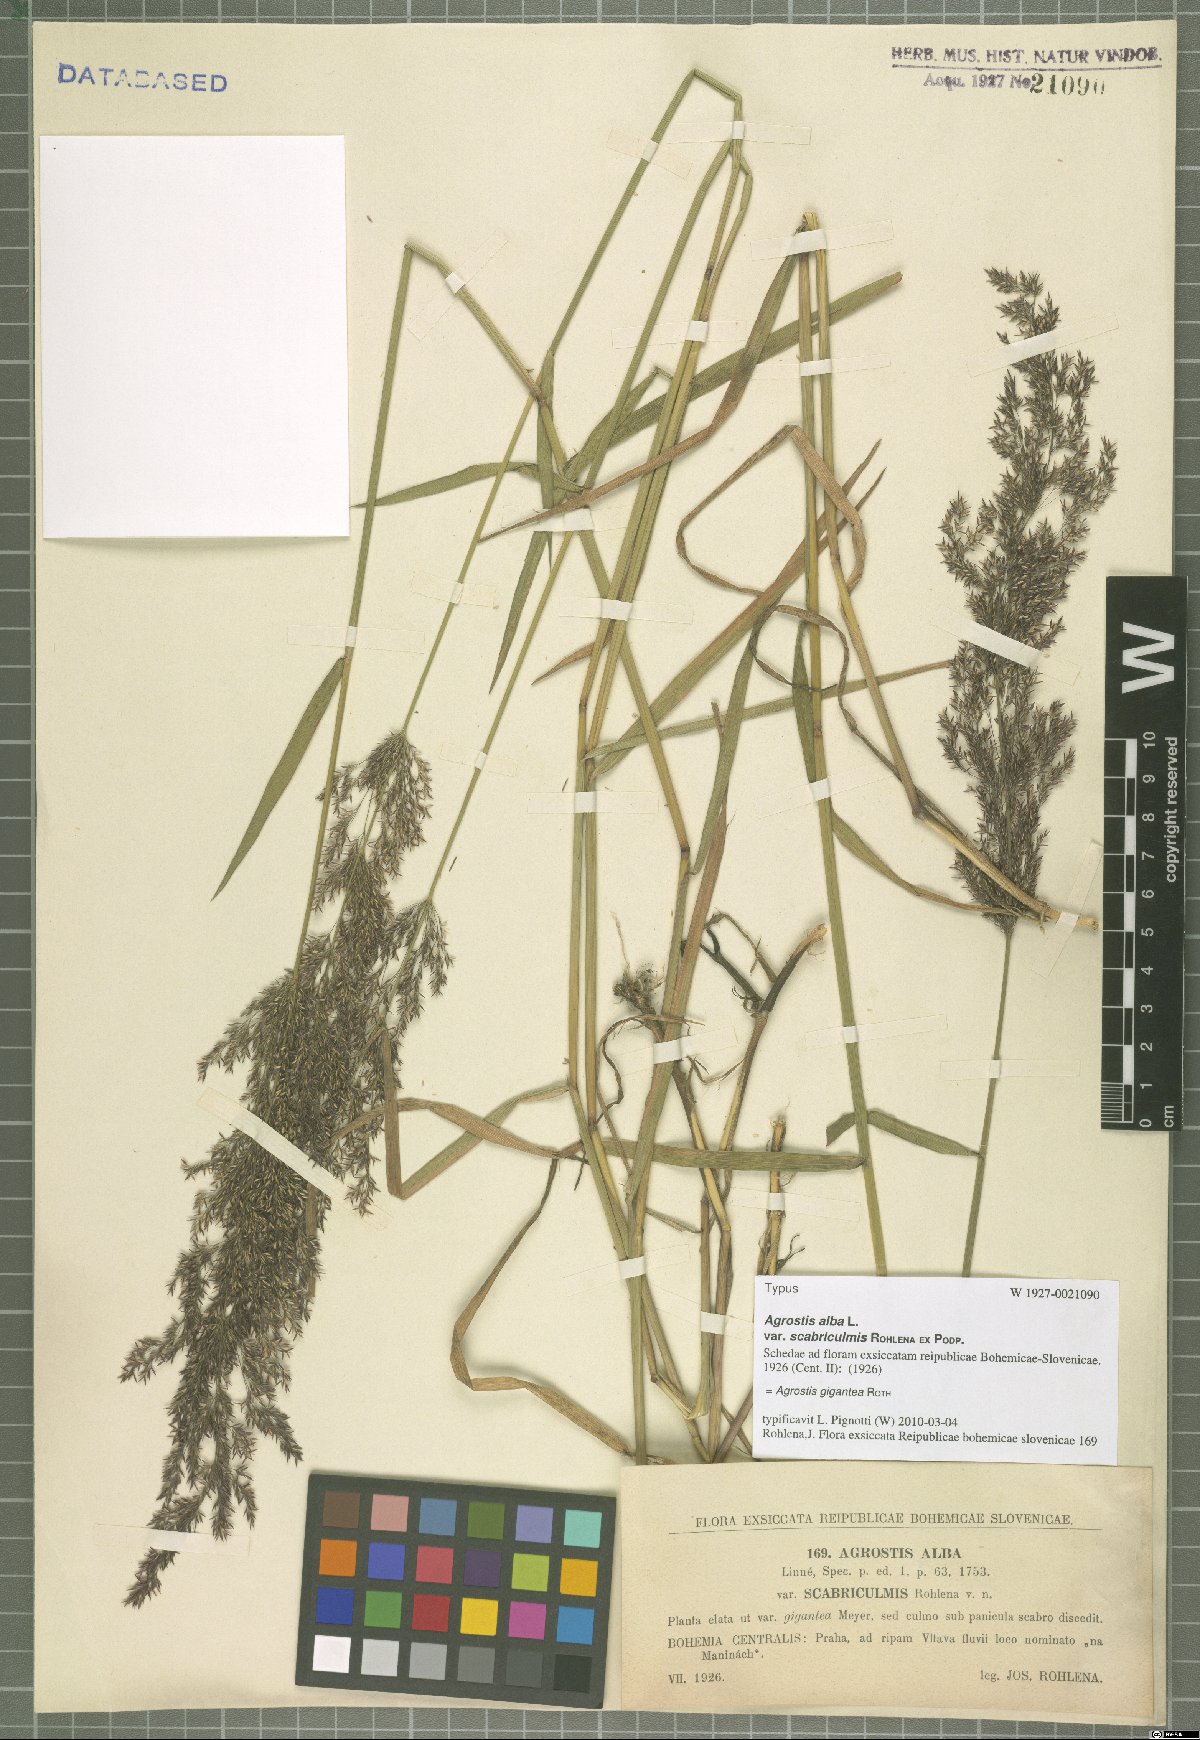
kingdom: Plantae
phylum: Tracheophyta
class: Liliopsida
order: Poales
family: Poaceae
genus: Agrostis
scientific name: Agrostis gigantea
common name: Black bent
